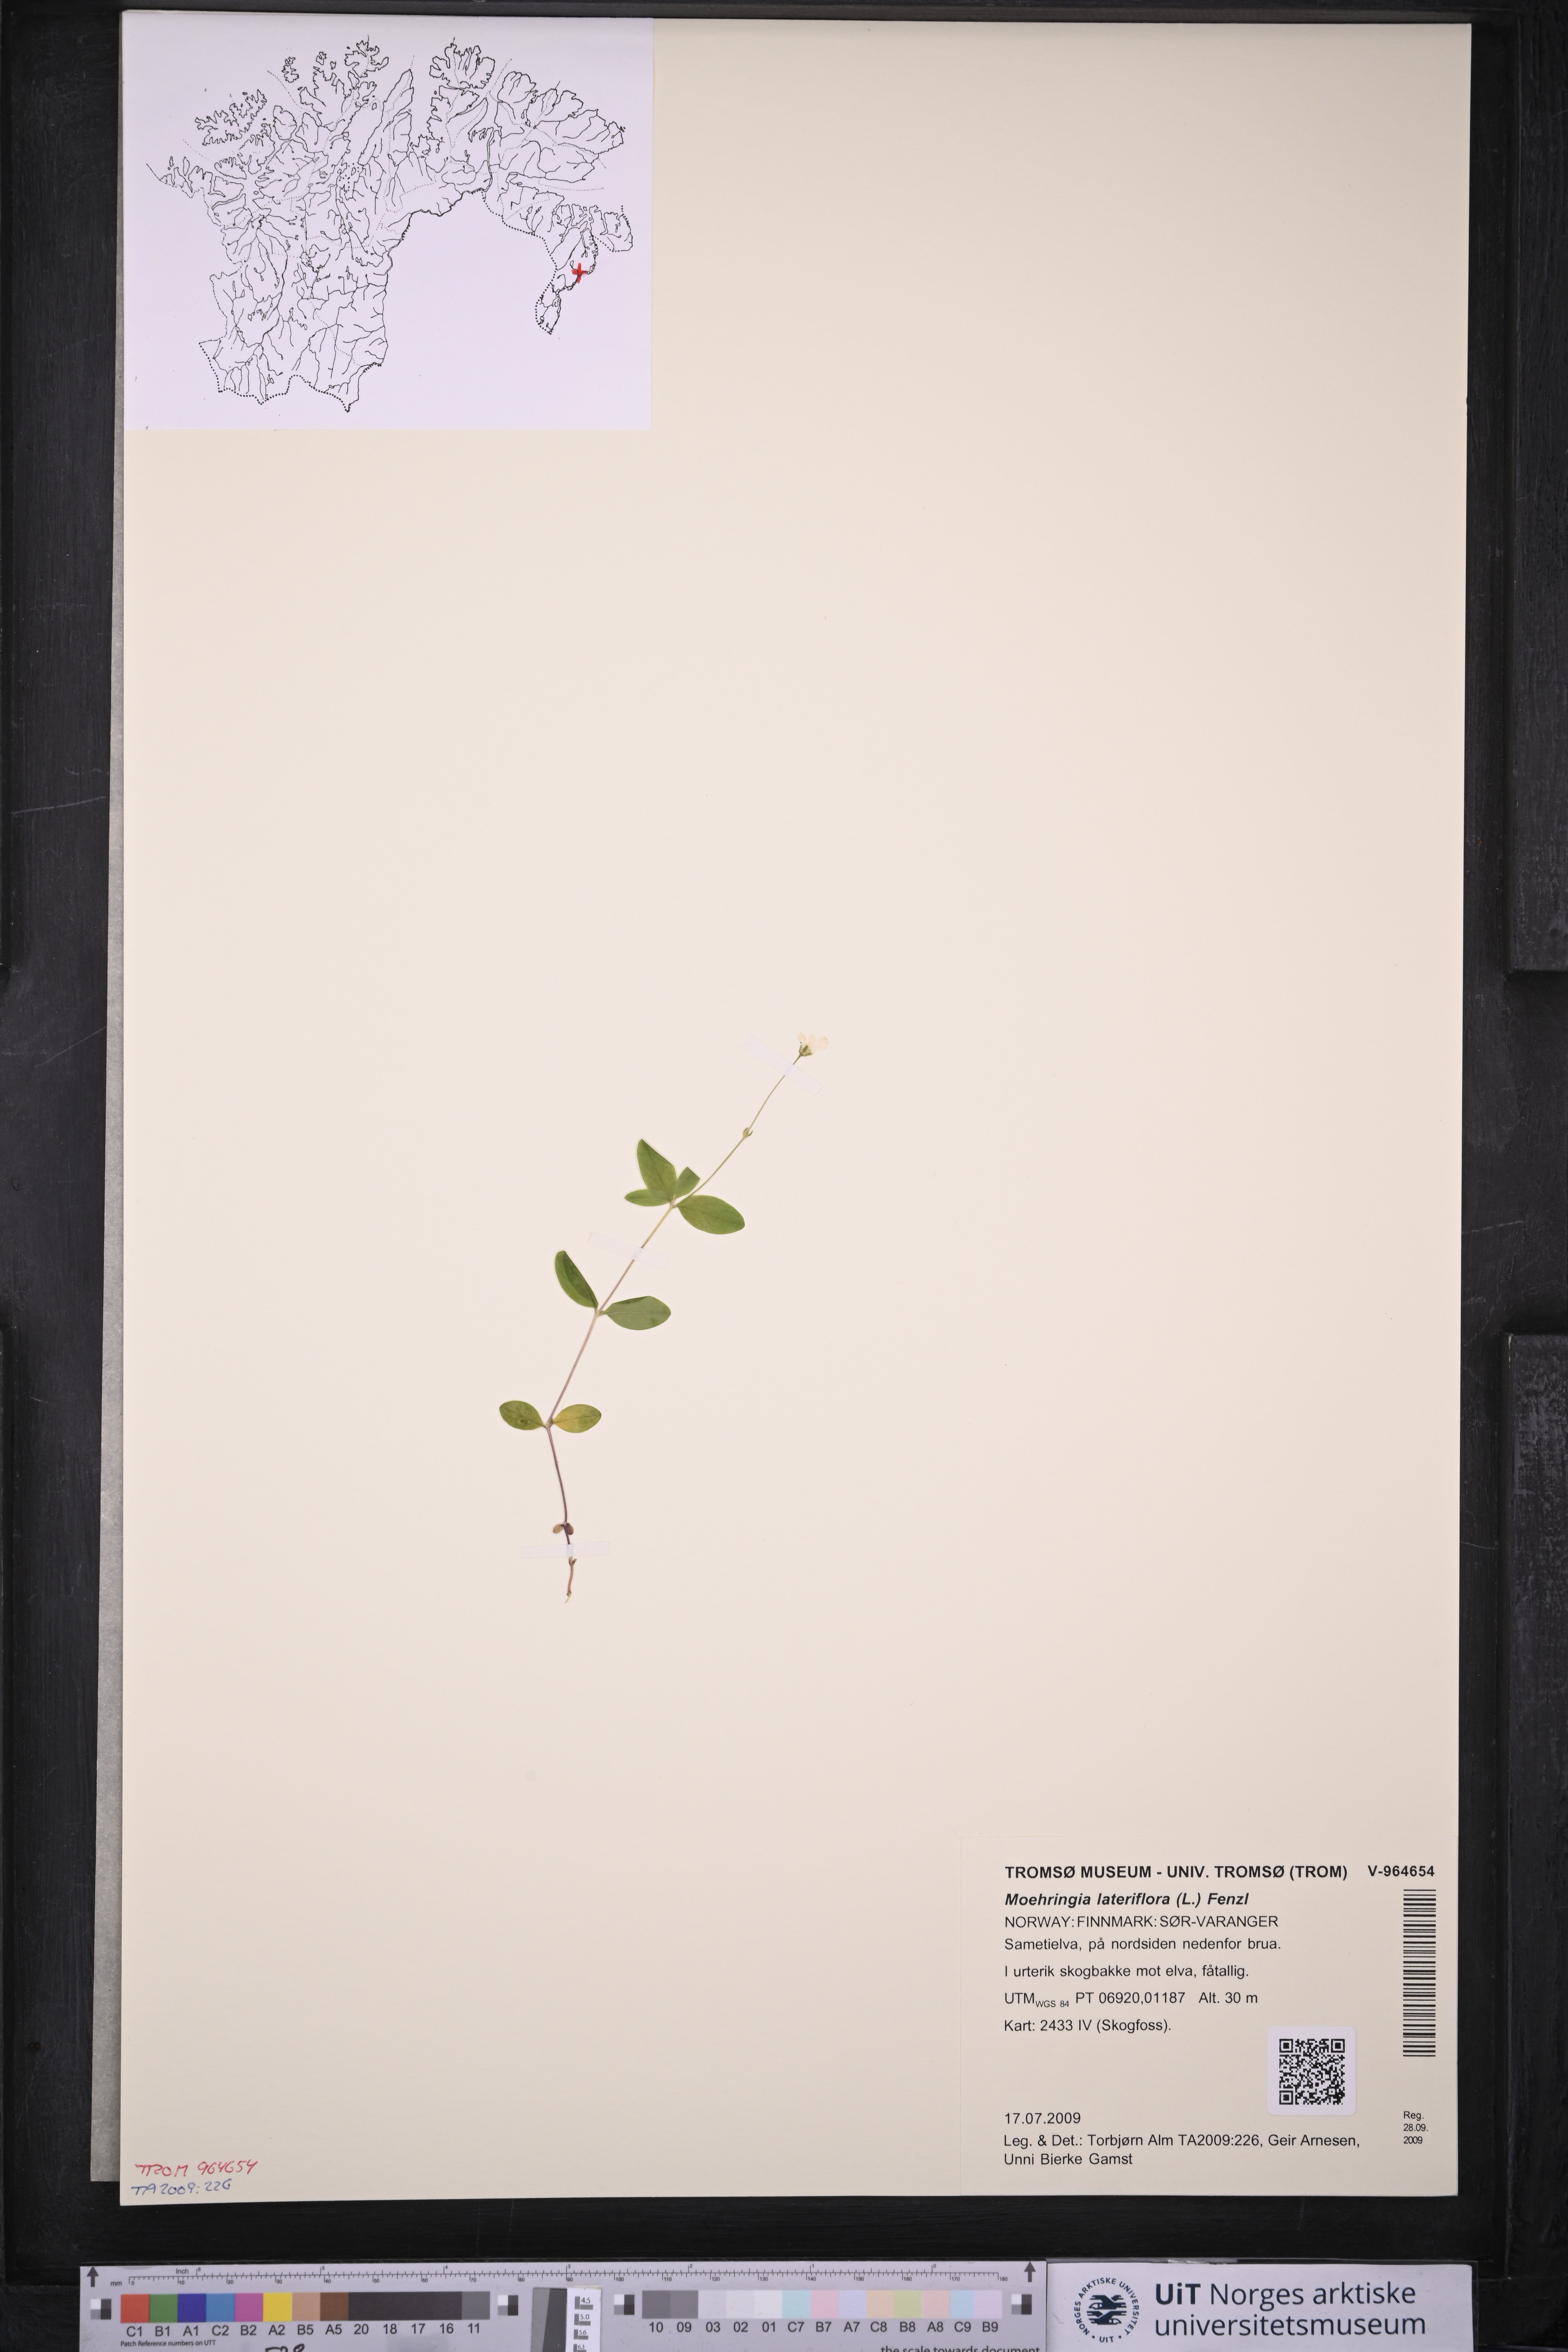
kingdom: Plantae
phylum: Tracheophyta
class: Magnoliopsida
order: Caryophyllales
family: Caryophyllaceae
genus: Moehringia
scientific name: Moehringia lateriflora
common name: Blunt-leaved sandwort
